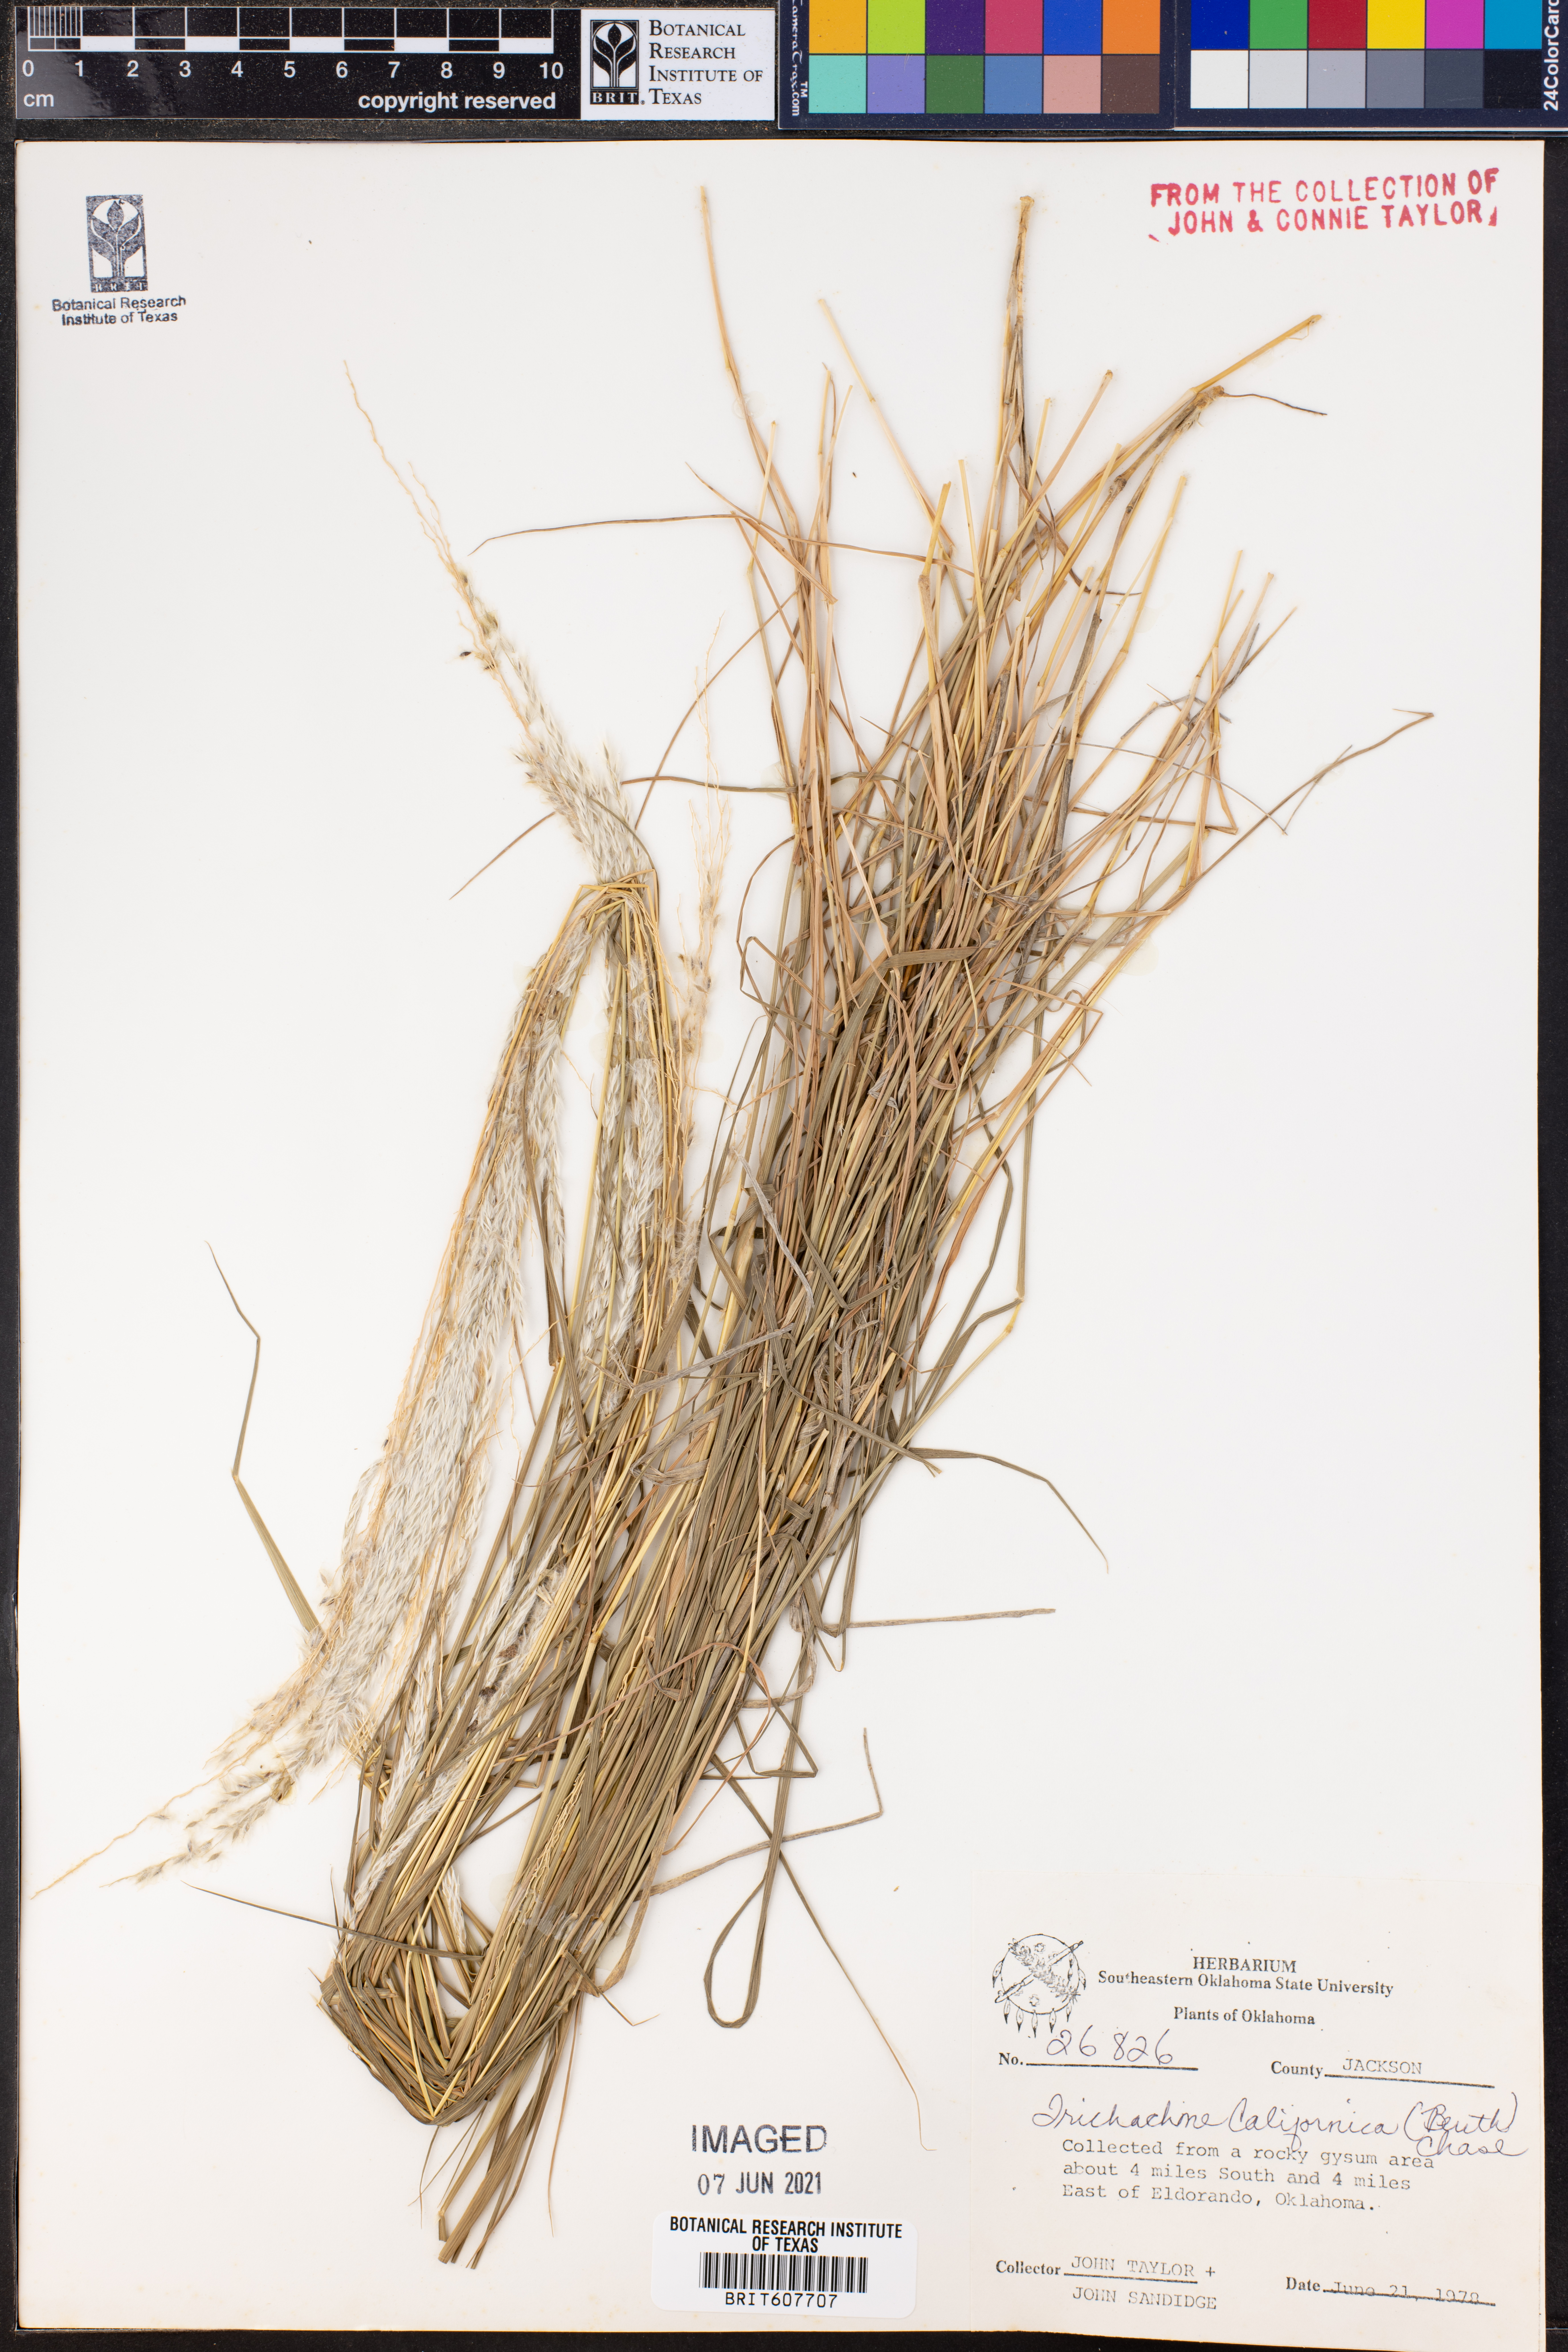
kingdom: Plantae
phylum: Tracheophyta
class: Liliopsida
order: Poales
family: Poaceae
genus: Digitaria
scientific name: Digitaria californica
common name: Arizona cottontop
